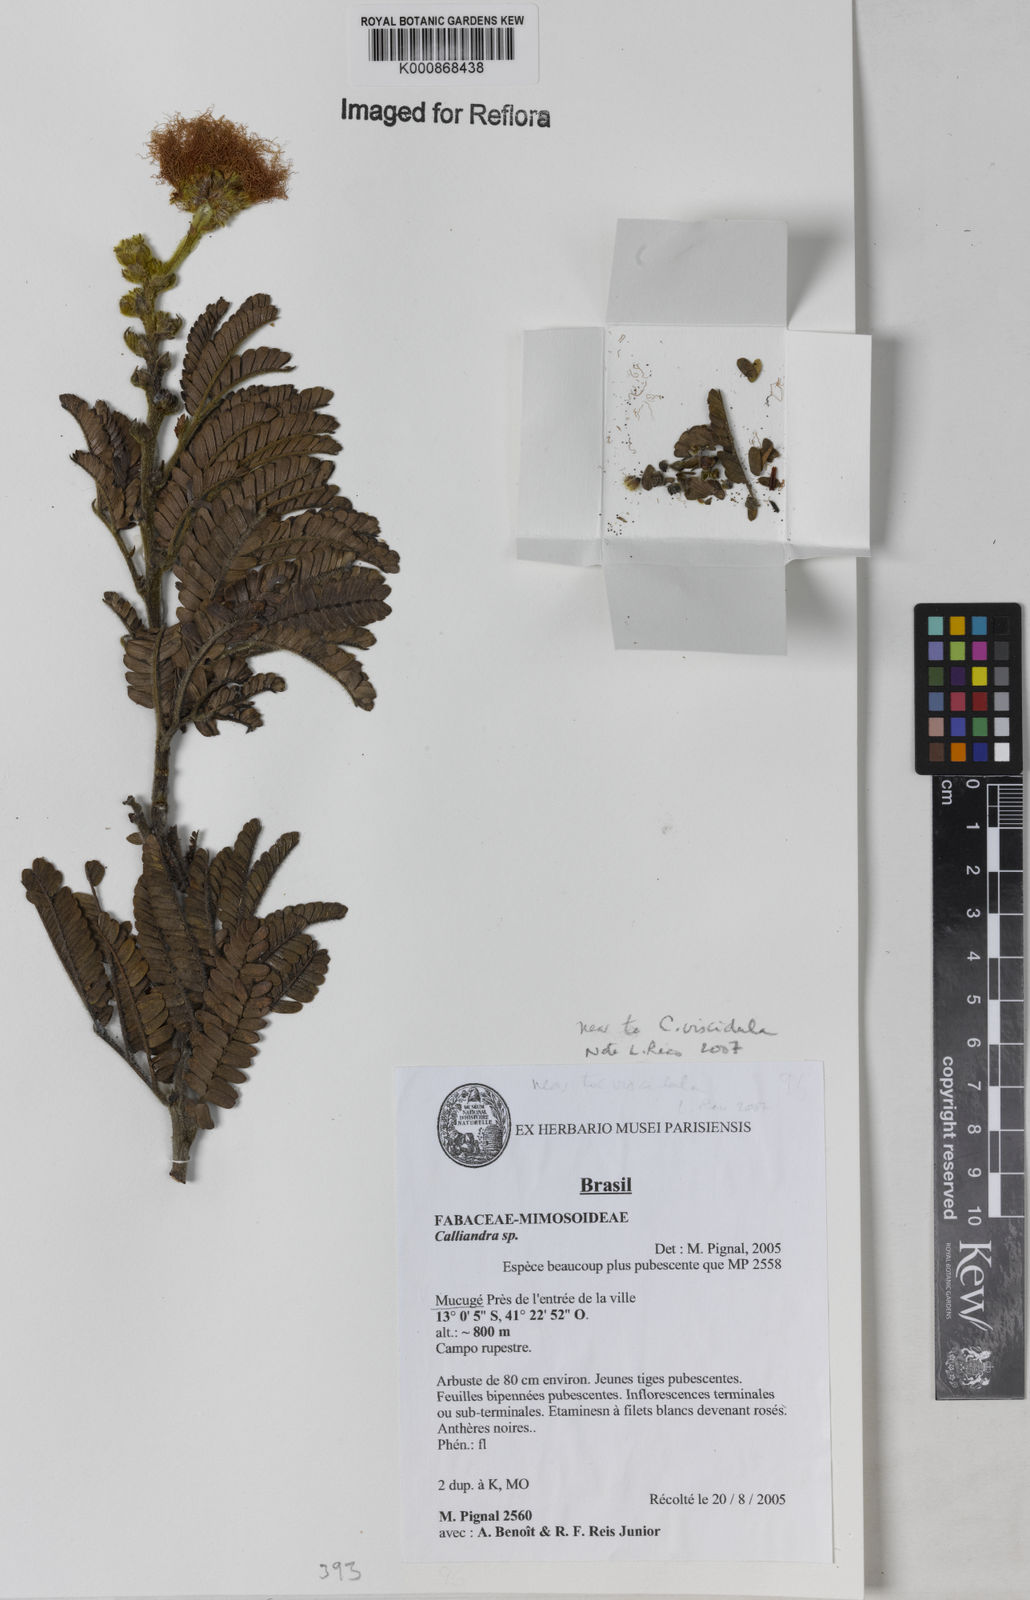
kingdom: Plantae
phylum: Tracheophyta
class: Magnoliopsida
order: Fabales
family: Fabaceae
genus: Calliandra
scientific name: Calliandra
